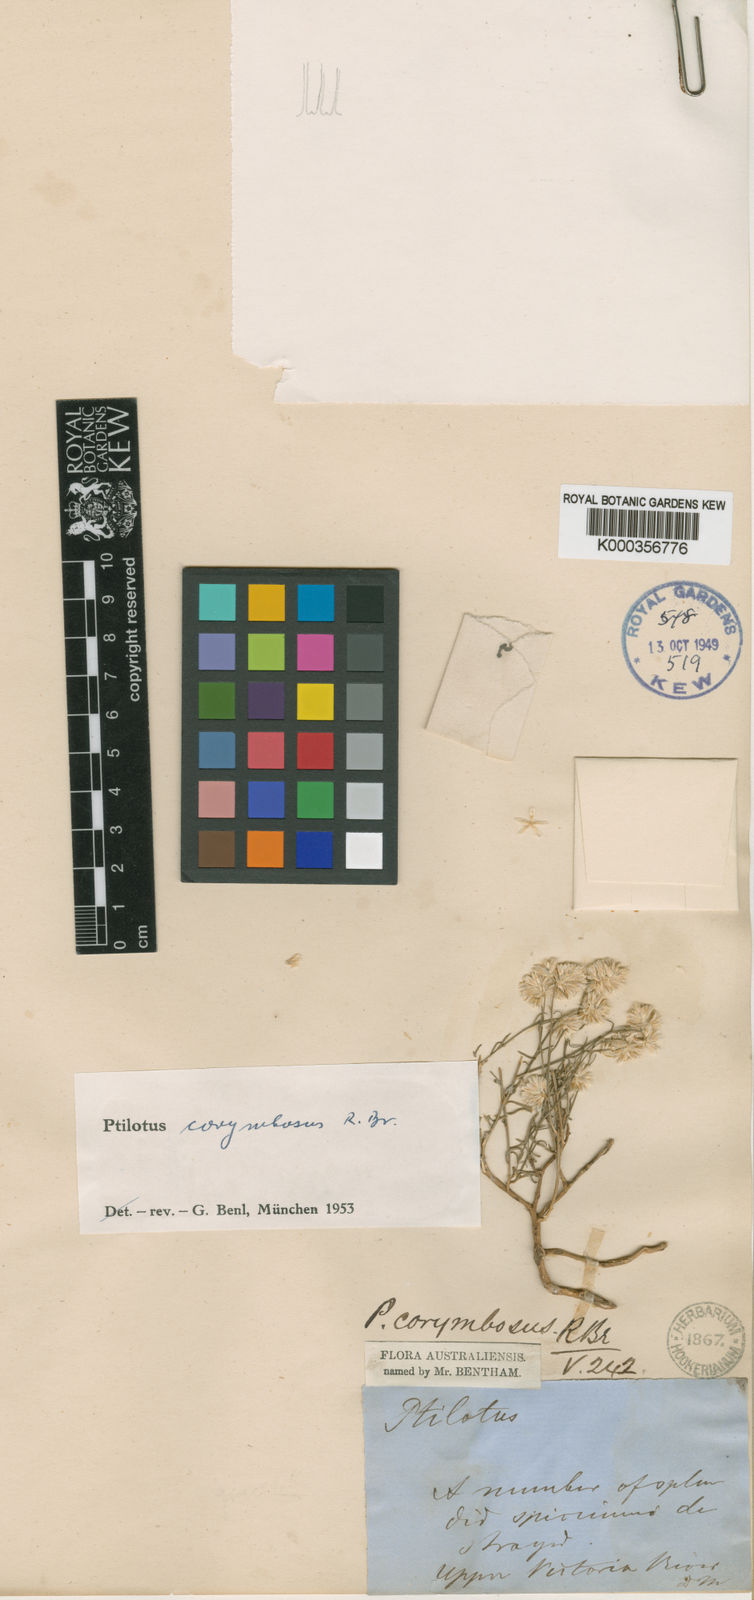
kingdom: Plantae
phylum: Tracheophyta
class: Magnoliopsida
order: Caryophyllales
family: Amaranthaceae
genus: Ptilotus
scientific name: Ptilotus corymbosus
